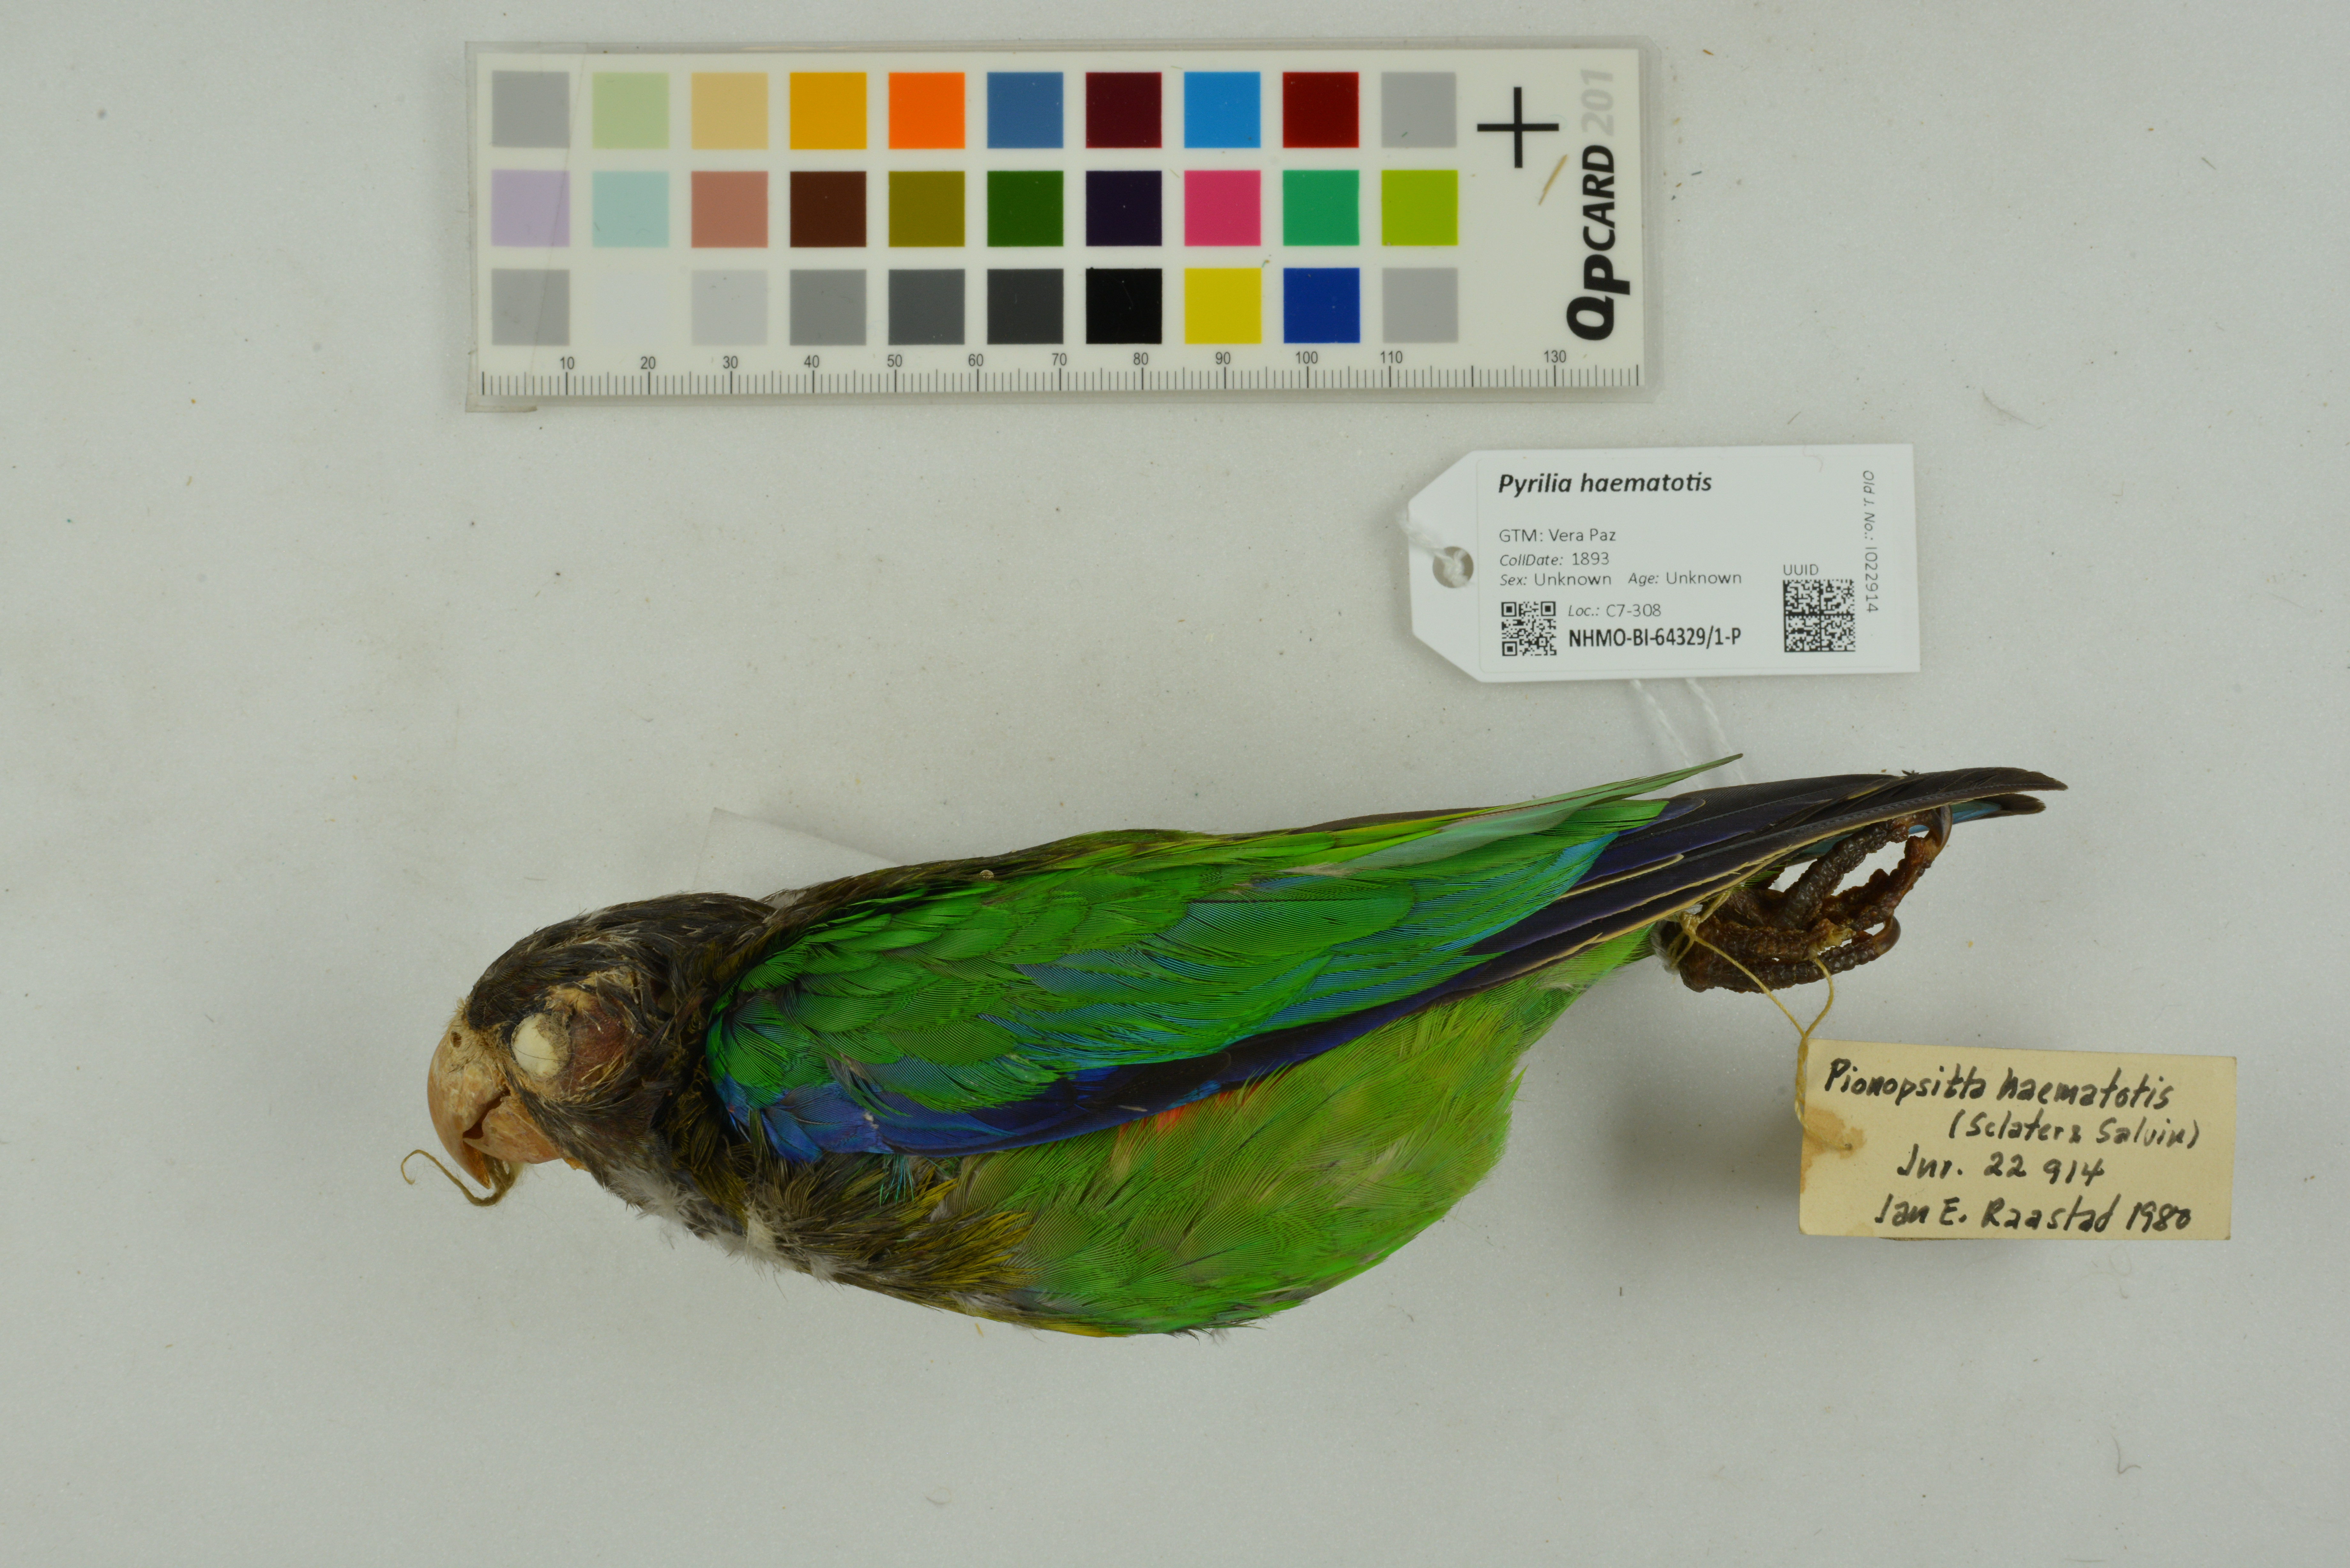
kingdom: Animalia
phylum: Chordata
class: Aves
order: Psittaciformes
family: Psittacidae
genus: Pionopsitta
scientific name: Pionopsitta haematotis
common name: Brown-hooded parrot
